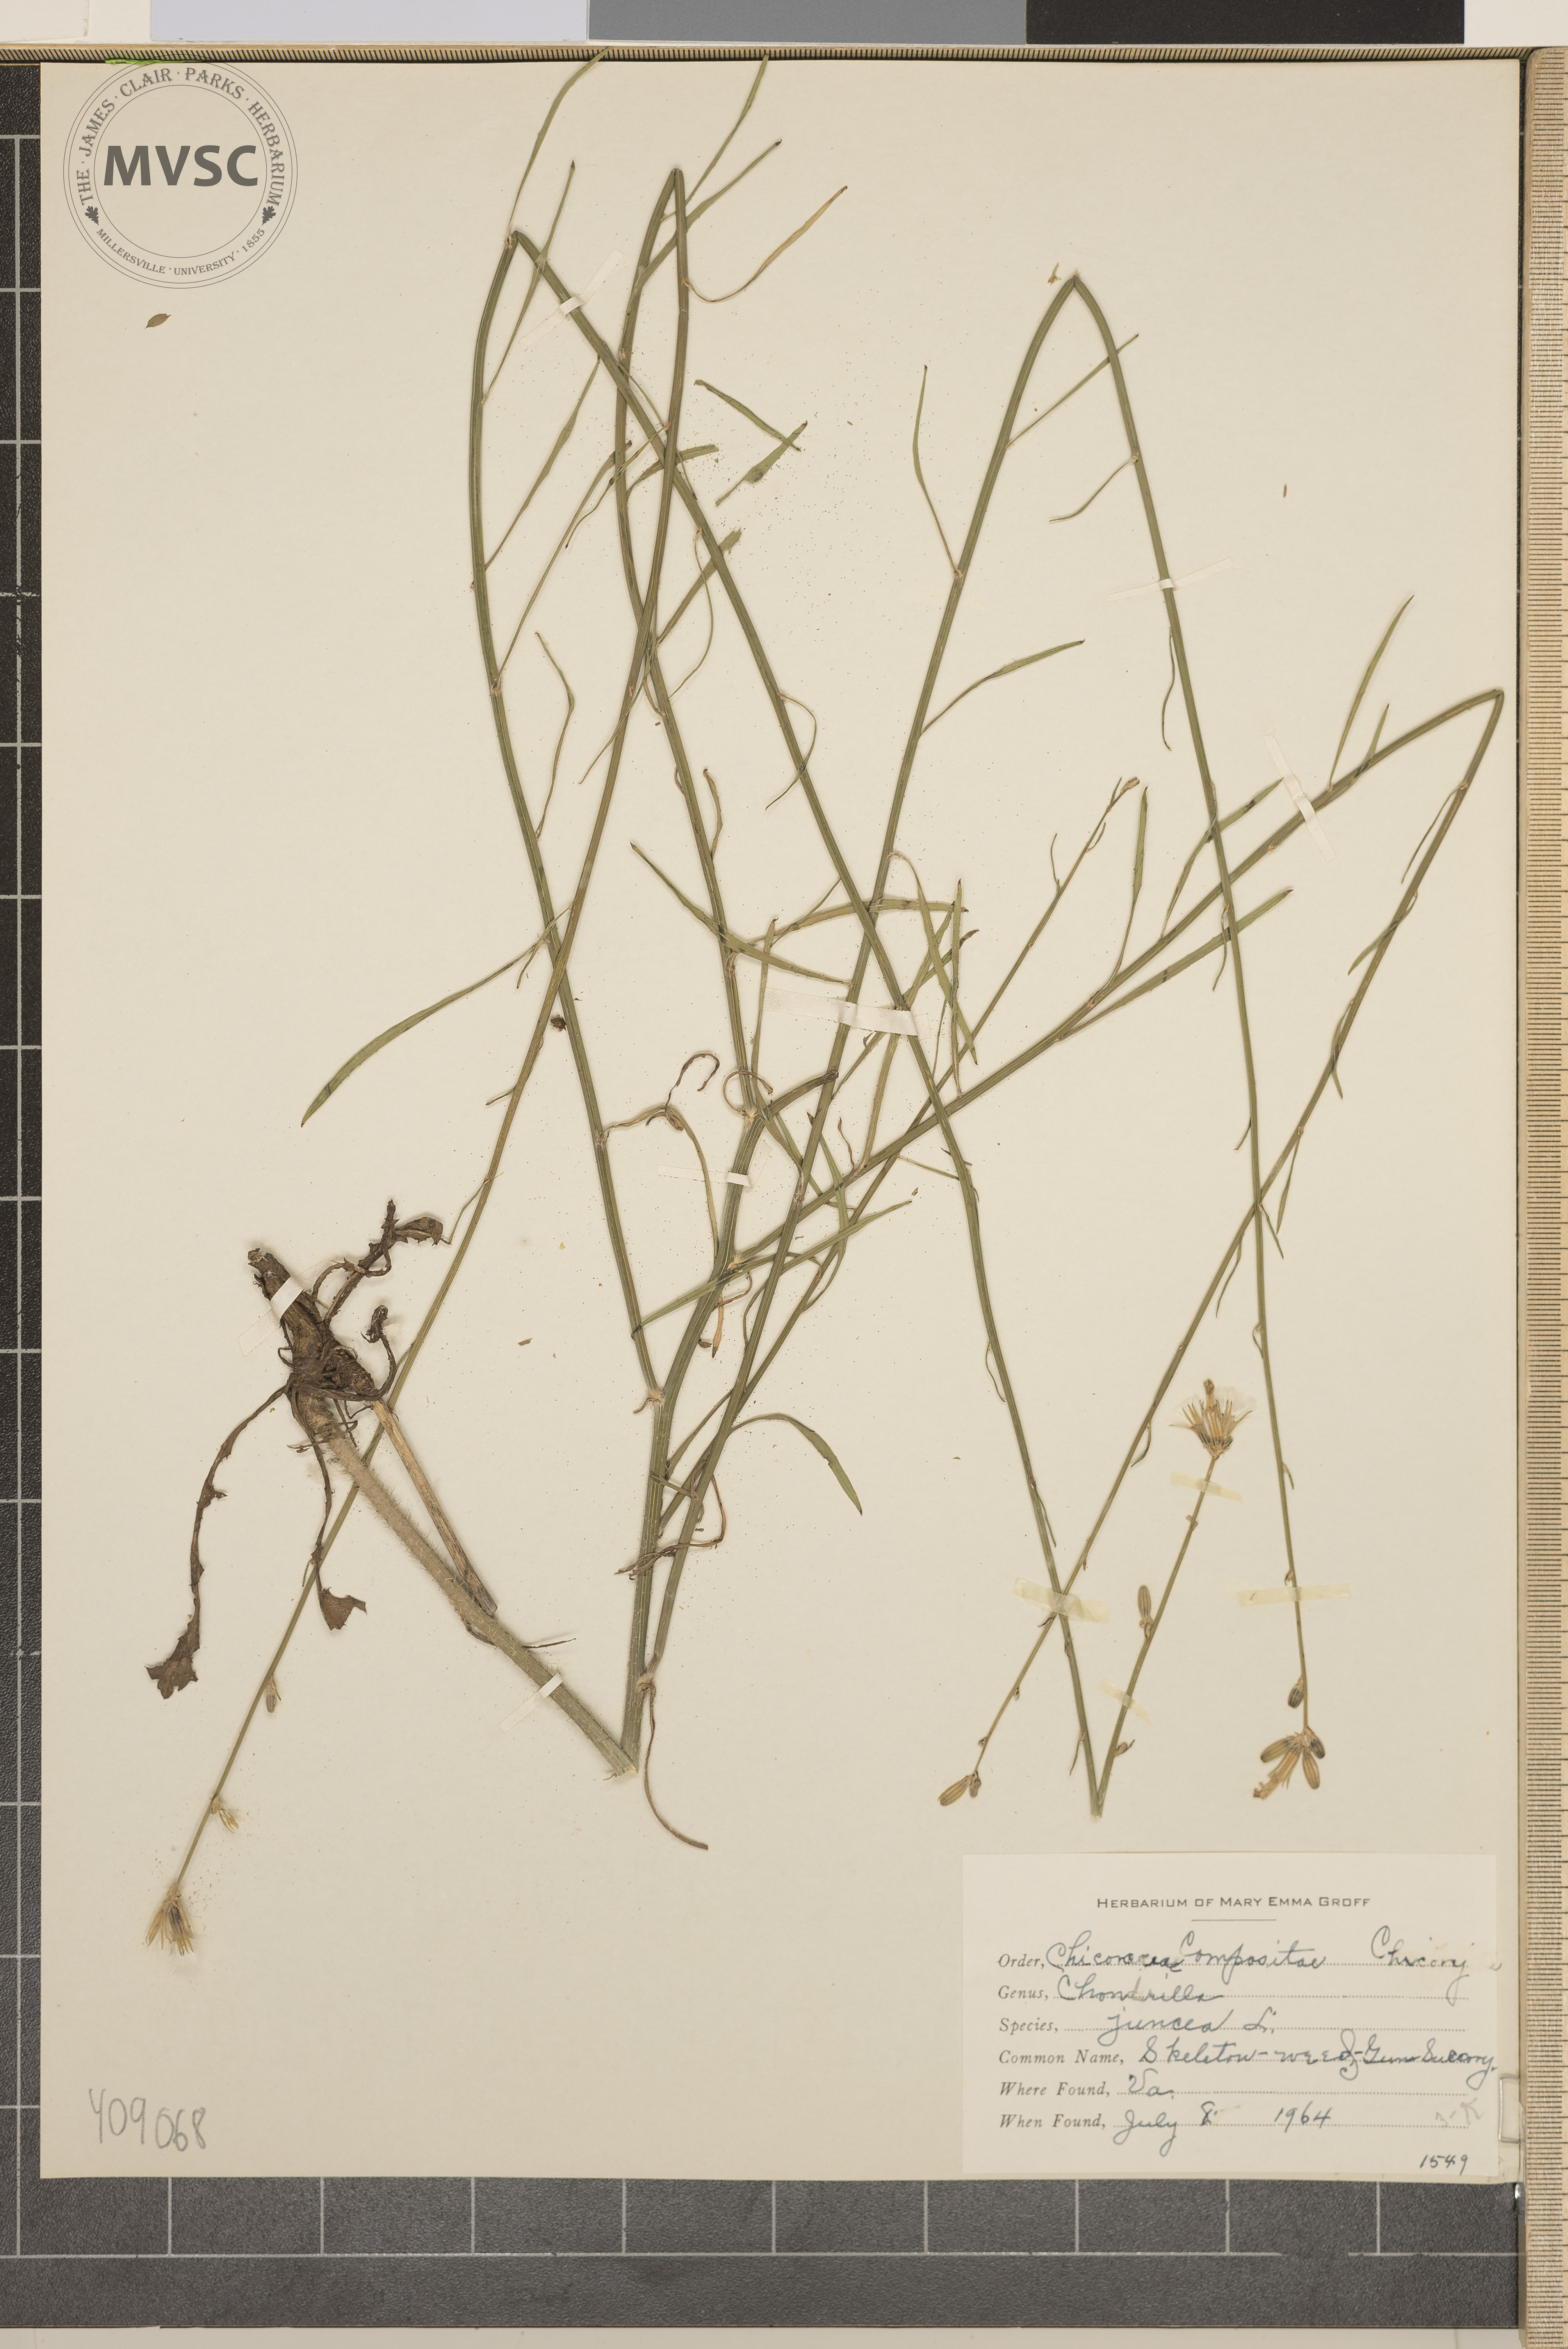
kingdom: Plantae
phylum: Tracheophyta
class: Magnoliopsida
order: Asterales
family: Asteraceae
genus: Chondrilla
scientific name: Chondrilla juncea
